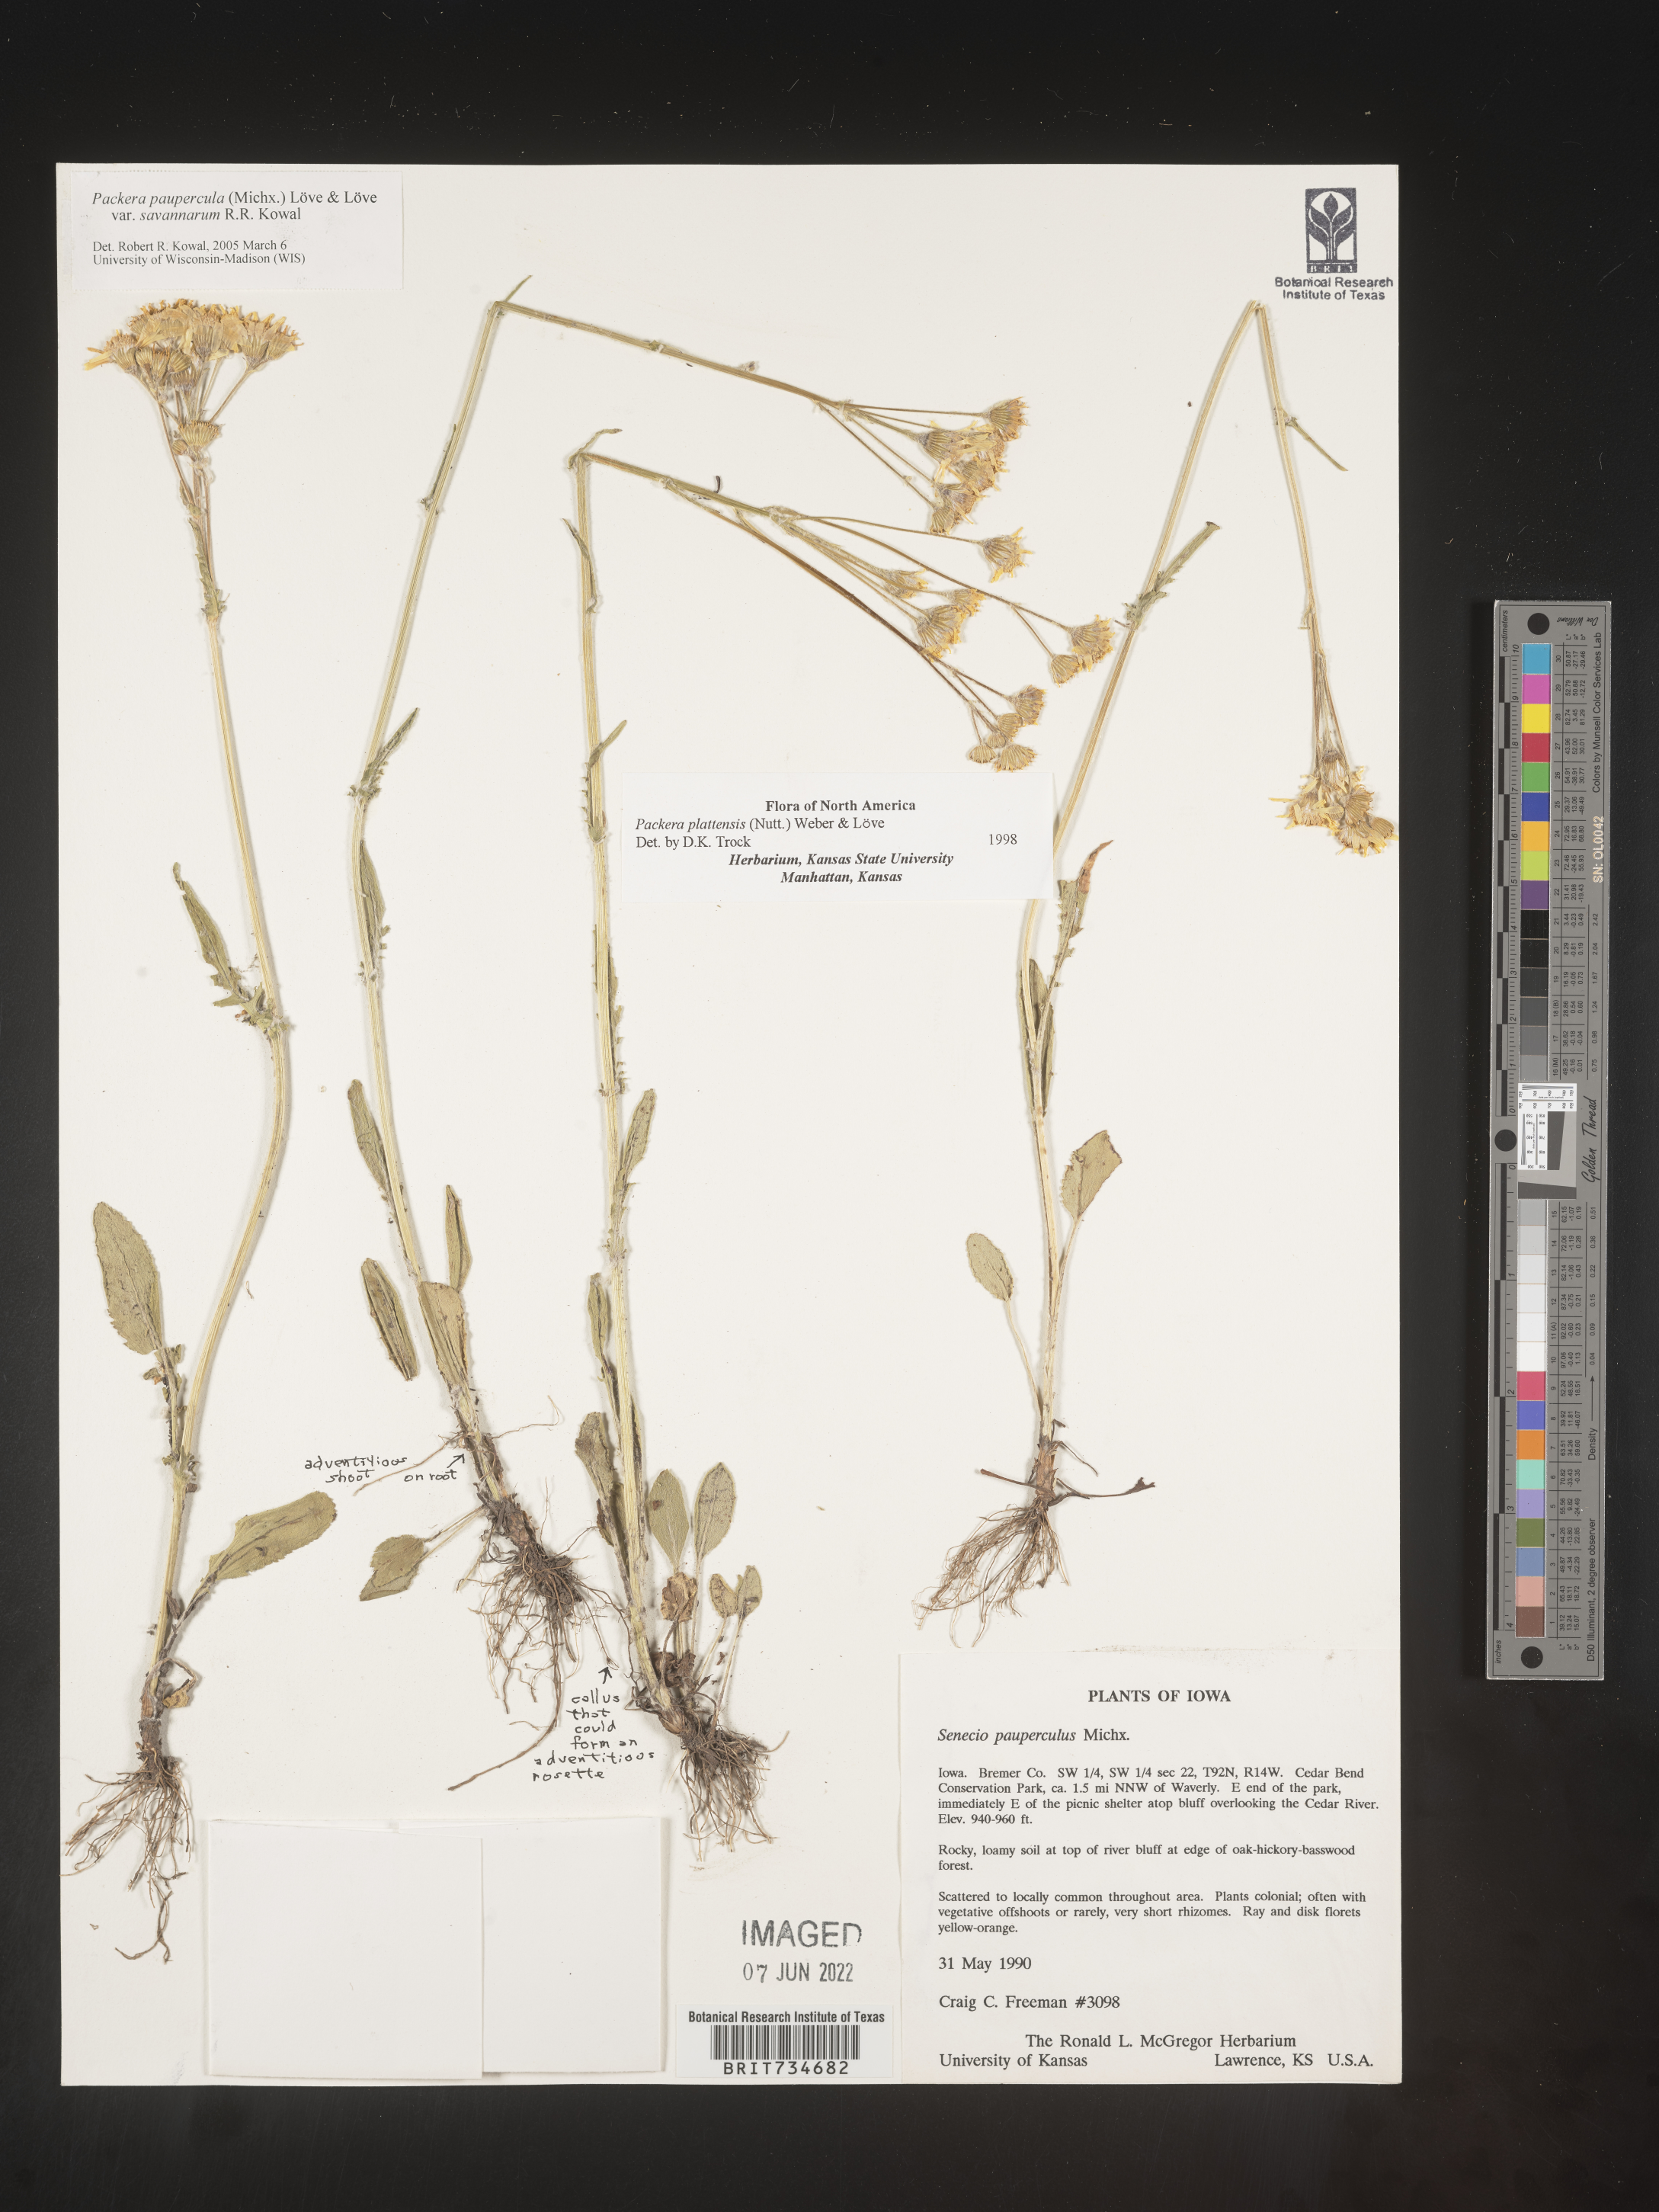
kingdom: Plantae
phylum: Tracheophyta
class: Magnoliopsida
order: Asterales
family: Asteraceae
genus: Packera
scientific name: Packera paupercula
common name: Balsam groundsel
